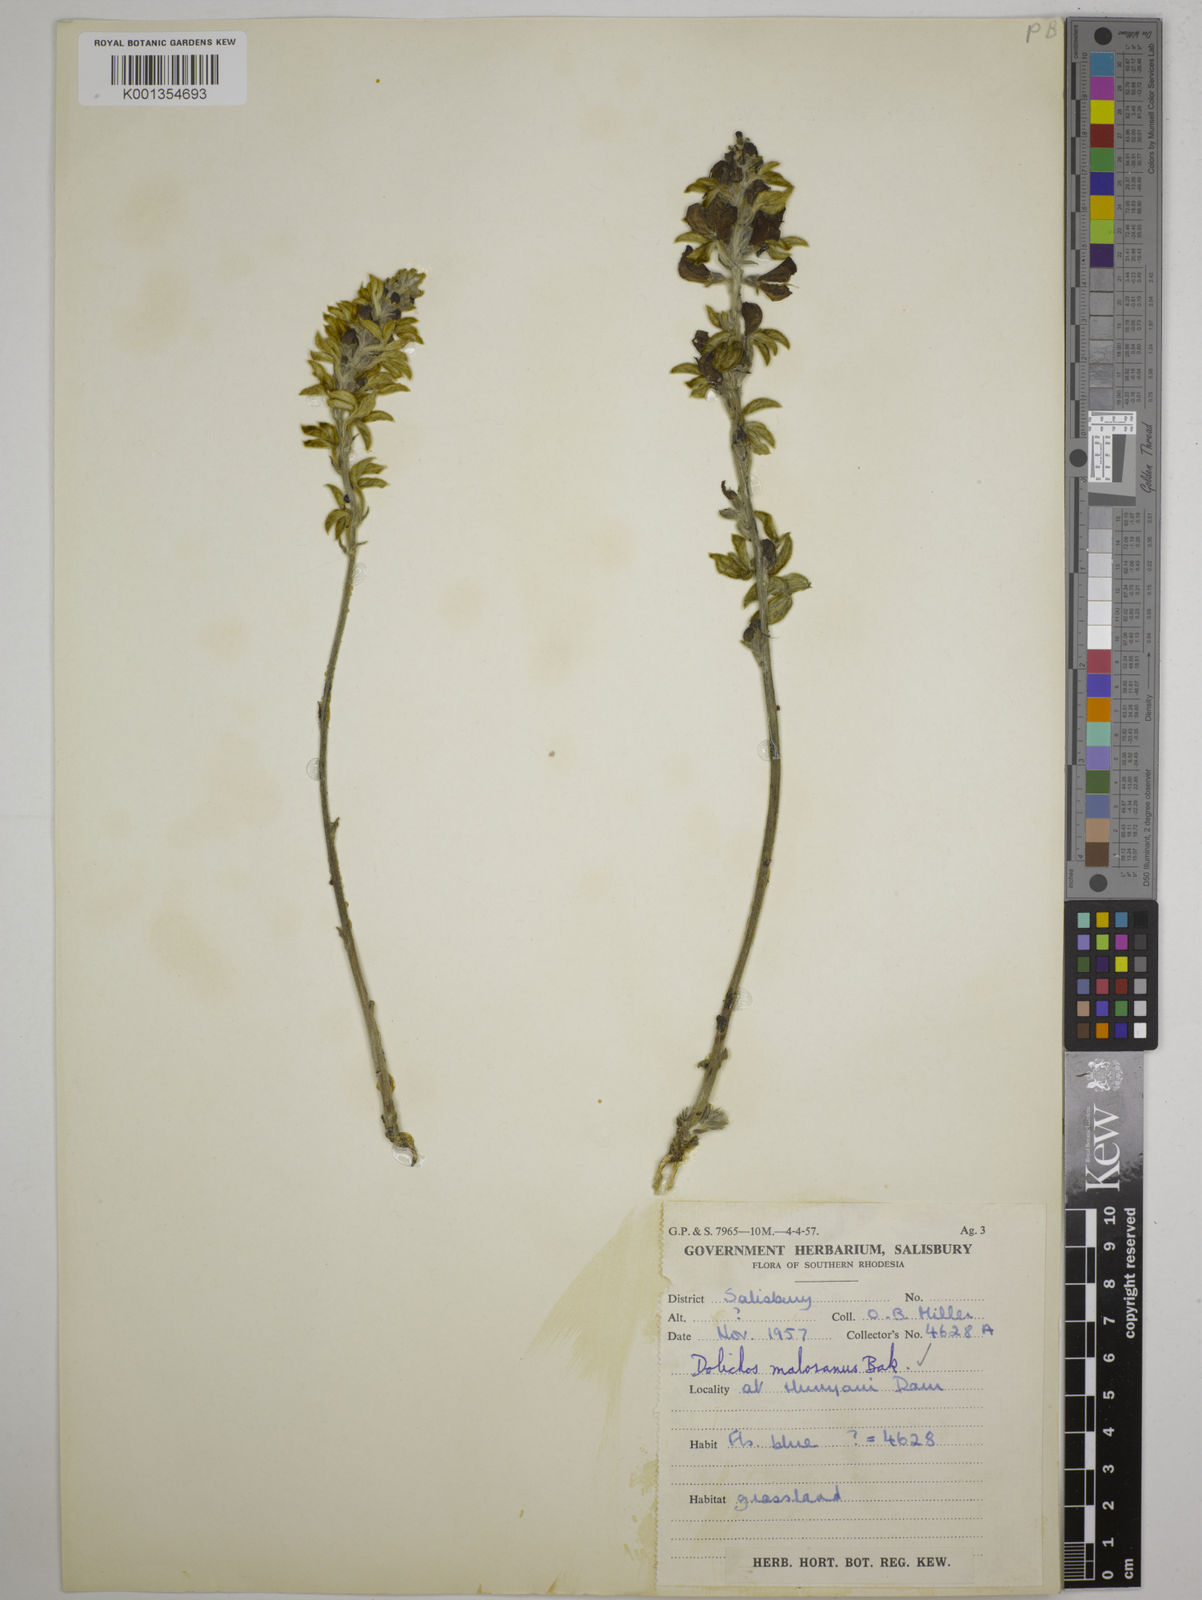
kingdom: Plantae
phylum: Tracheophyta
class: Magnoliopsida
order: Fabales
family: Fabaceae
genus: Dolichos
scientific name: Dolichos kilimandscharicus
